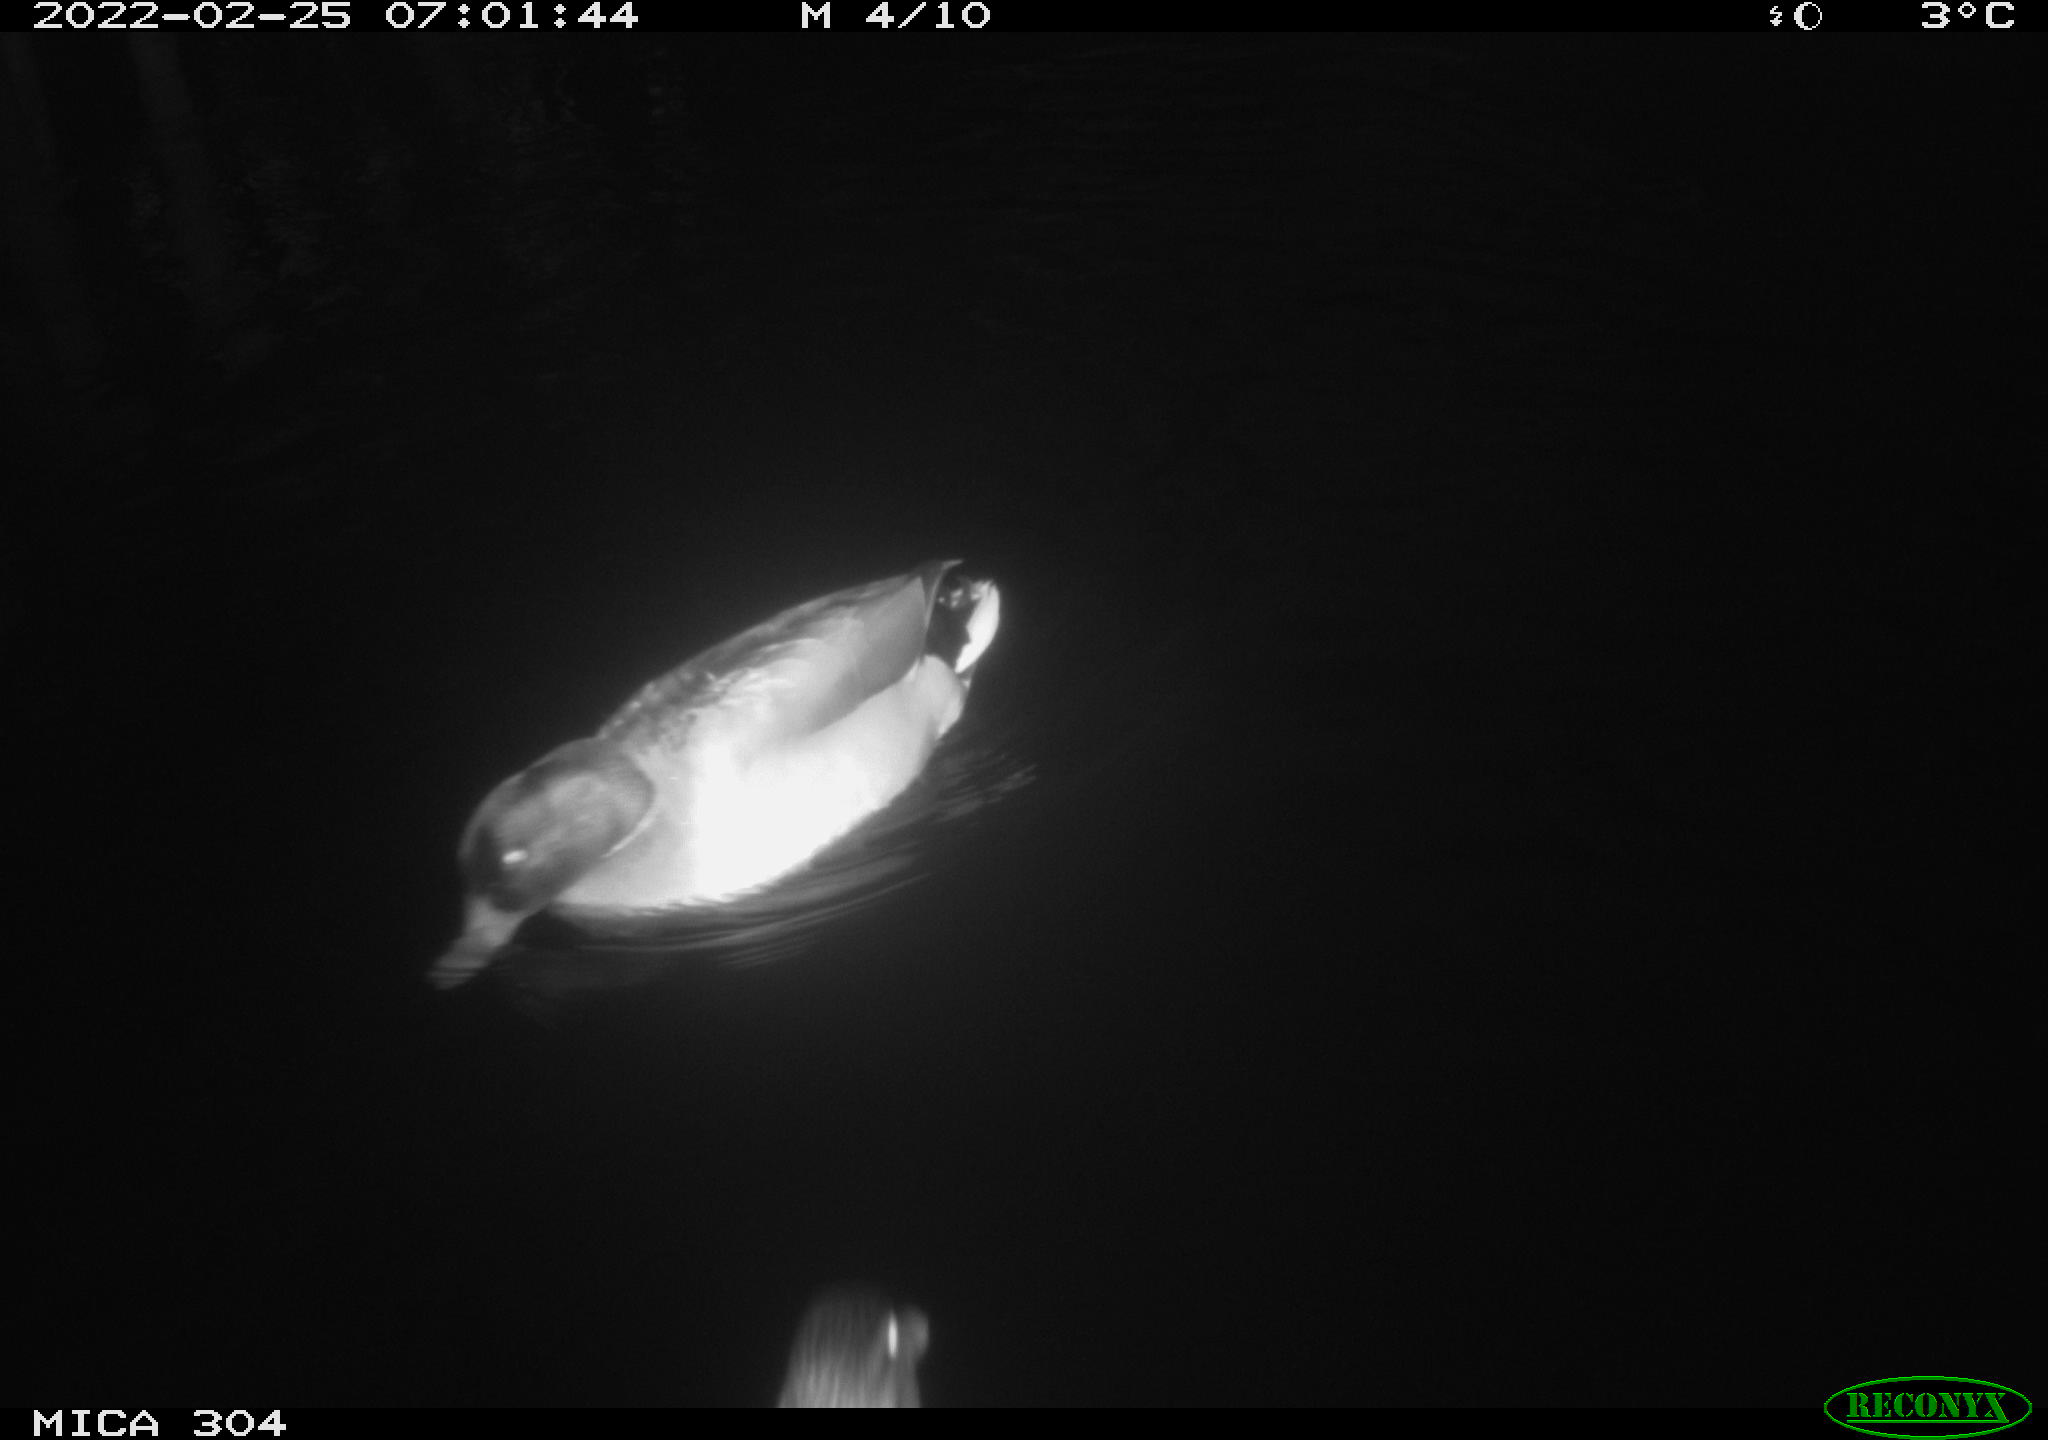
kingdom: Animalia
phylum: Chordata
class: Aves
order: Anseriformes
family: Anatidae
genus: Anas
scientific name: Anas platyrhynchos
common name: Mallard
